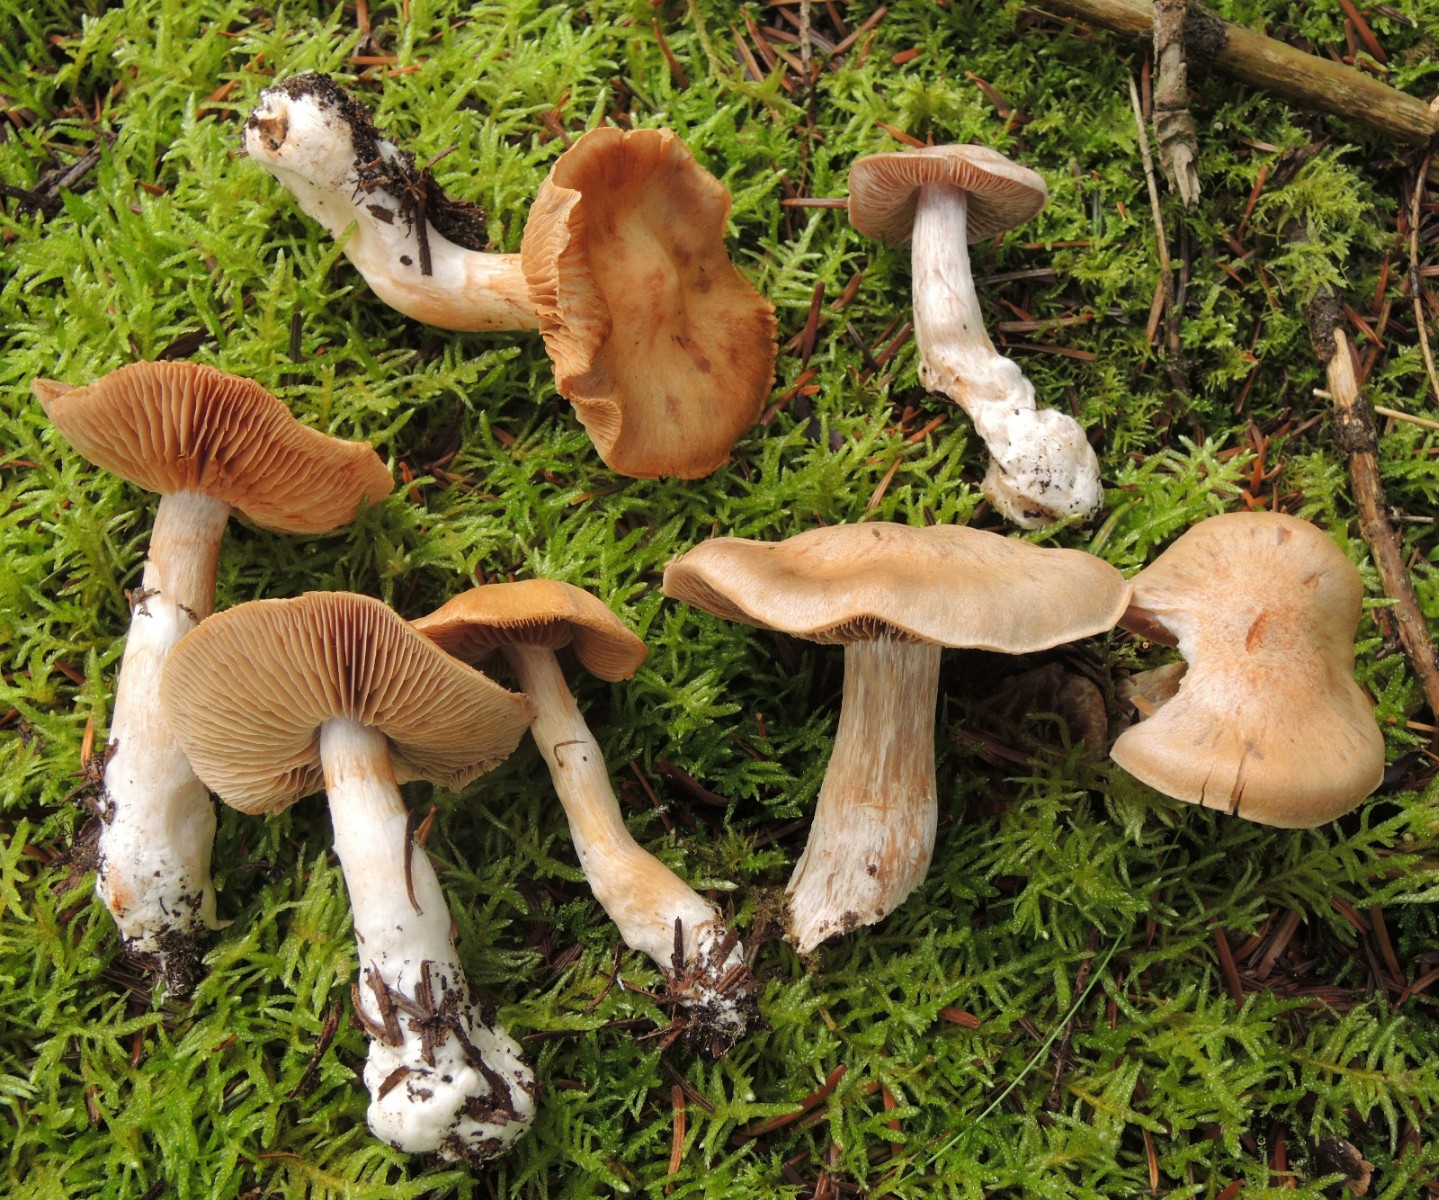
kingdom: Fungi
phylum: Basidiomycota
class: Agaricomycetes
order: Agaricales
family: Cortinariaceae
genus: Cortinarius
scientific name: Cortinarius hydrotelamonioides
